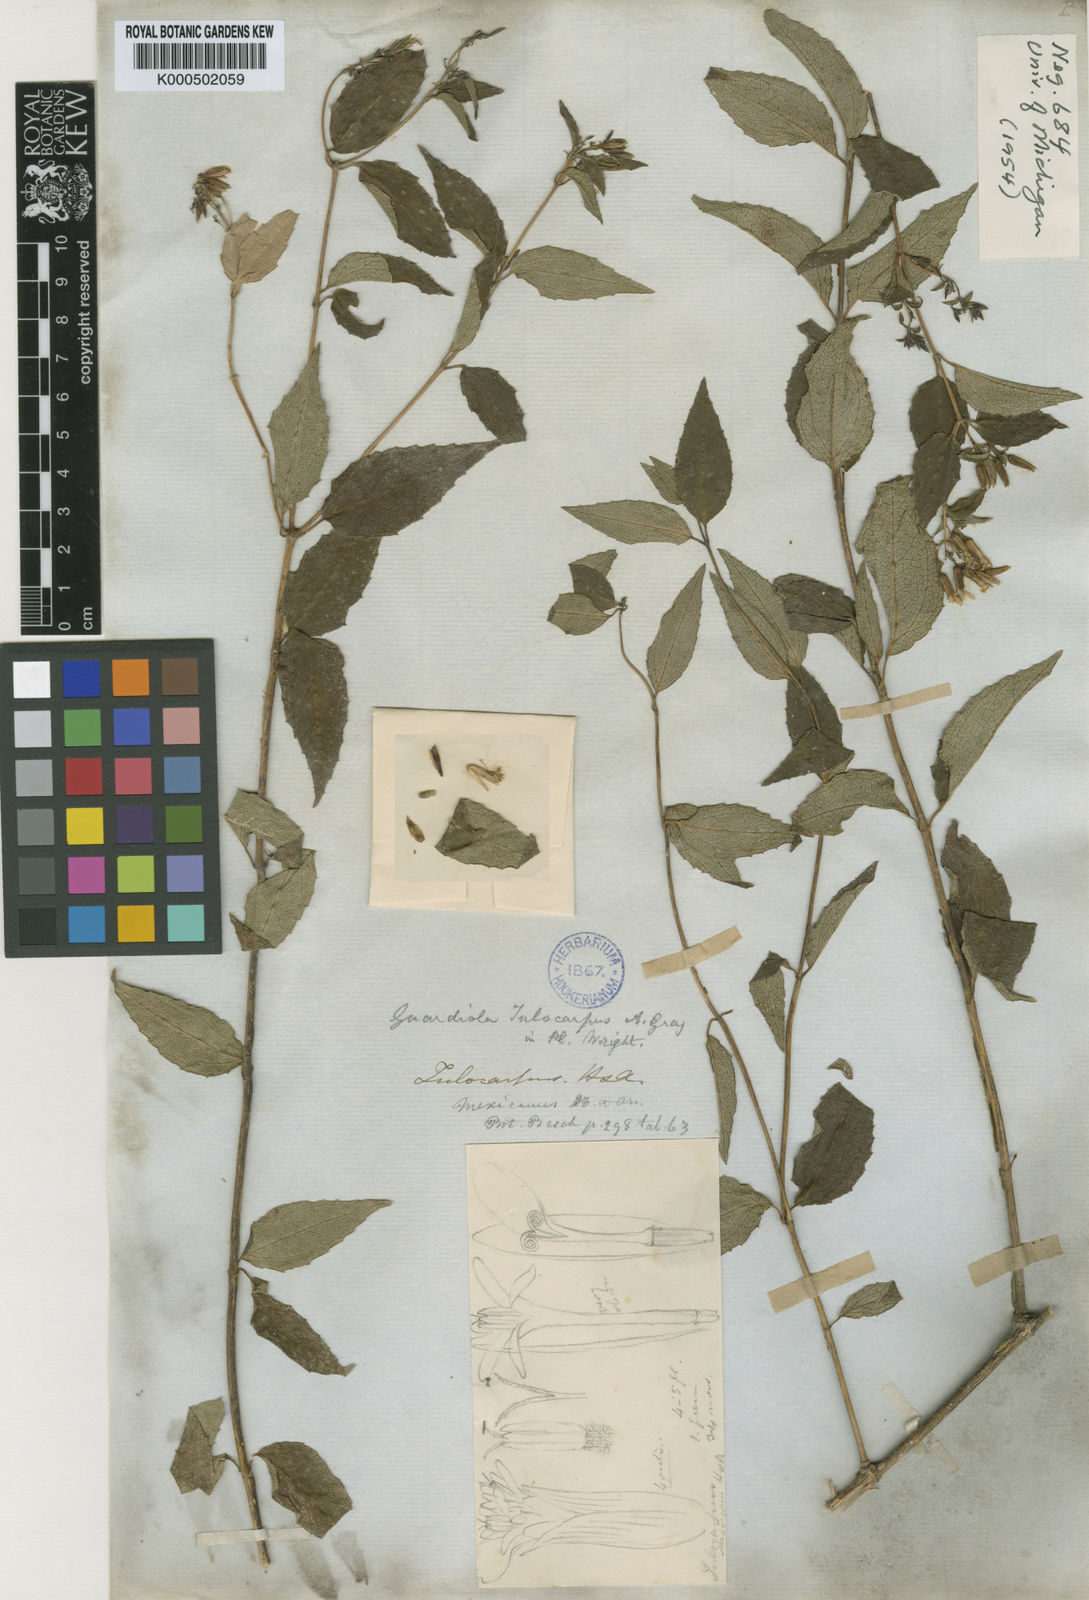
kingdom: Plantae
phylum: Tracheophyta
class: Magnoliopsida
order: Asterales
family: Asteraceae
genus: Guardiola
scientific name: Guardiola tulocarpus
